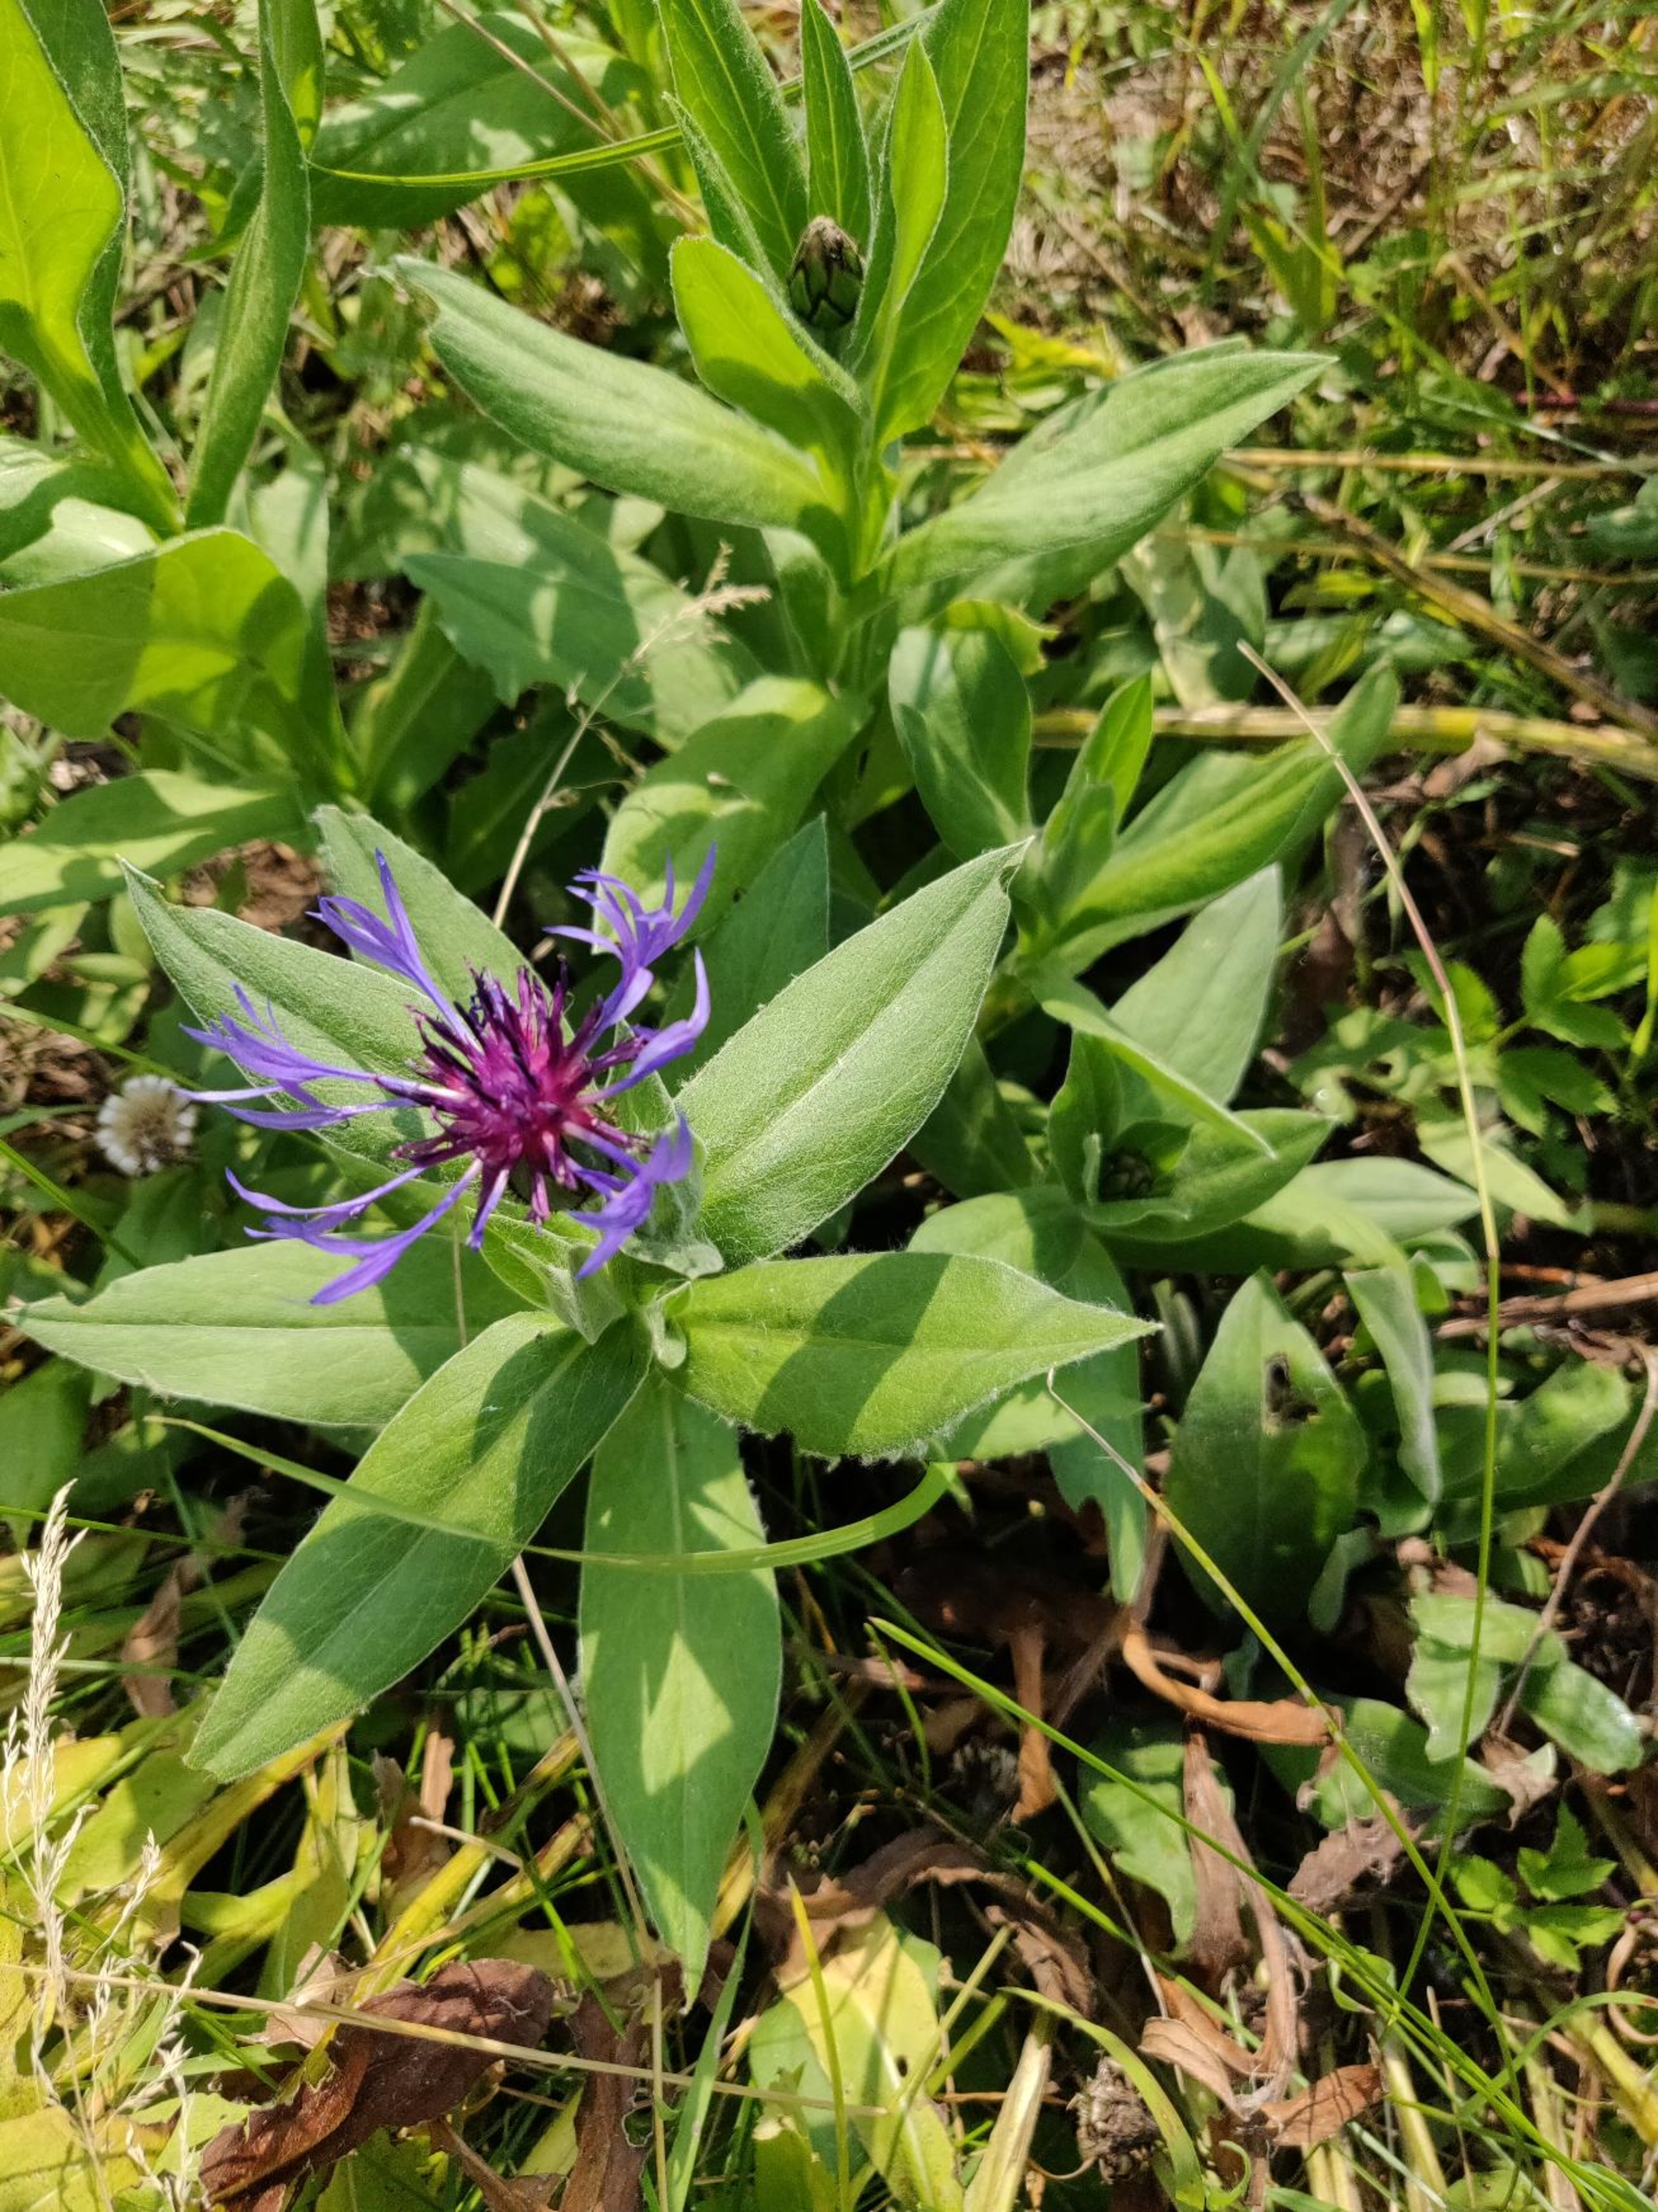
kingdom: Plantae
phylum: Tracheophyta
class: Magnoliopsida
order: Asterales
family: Asteraceae
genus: Centaurea
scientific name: Centaurea montana
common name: Bjerg-knopurt
